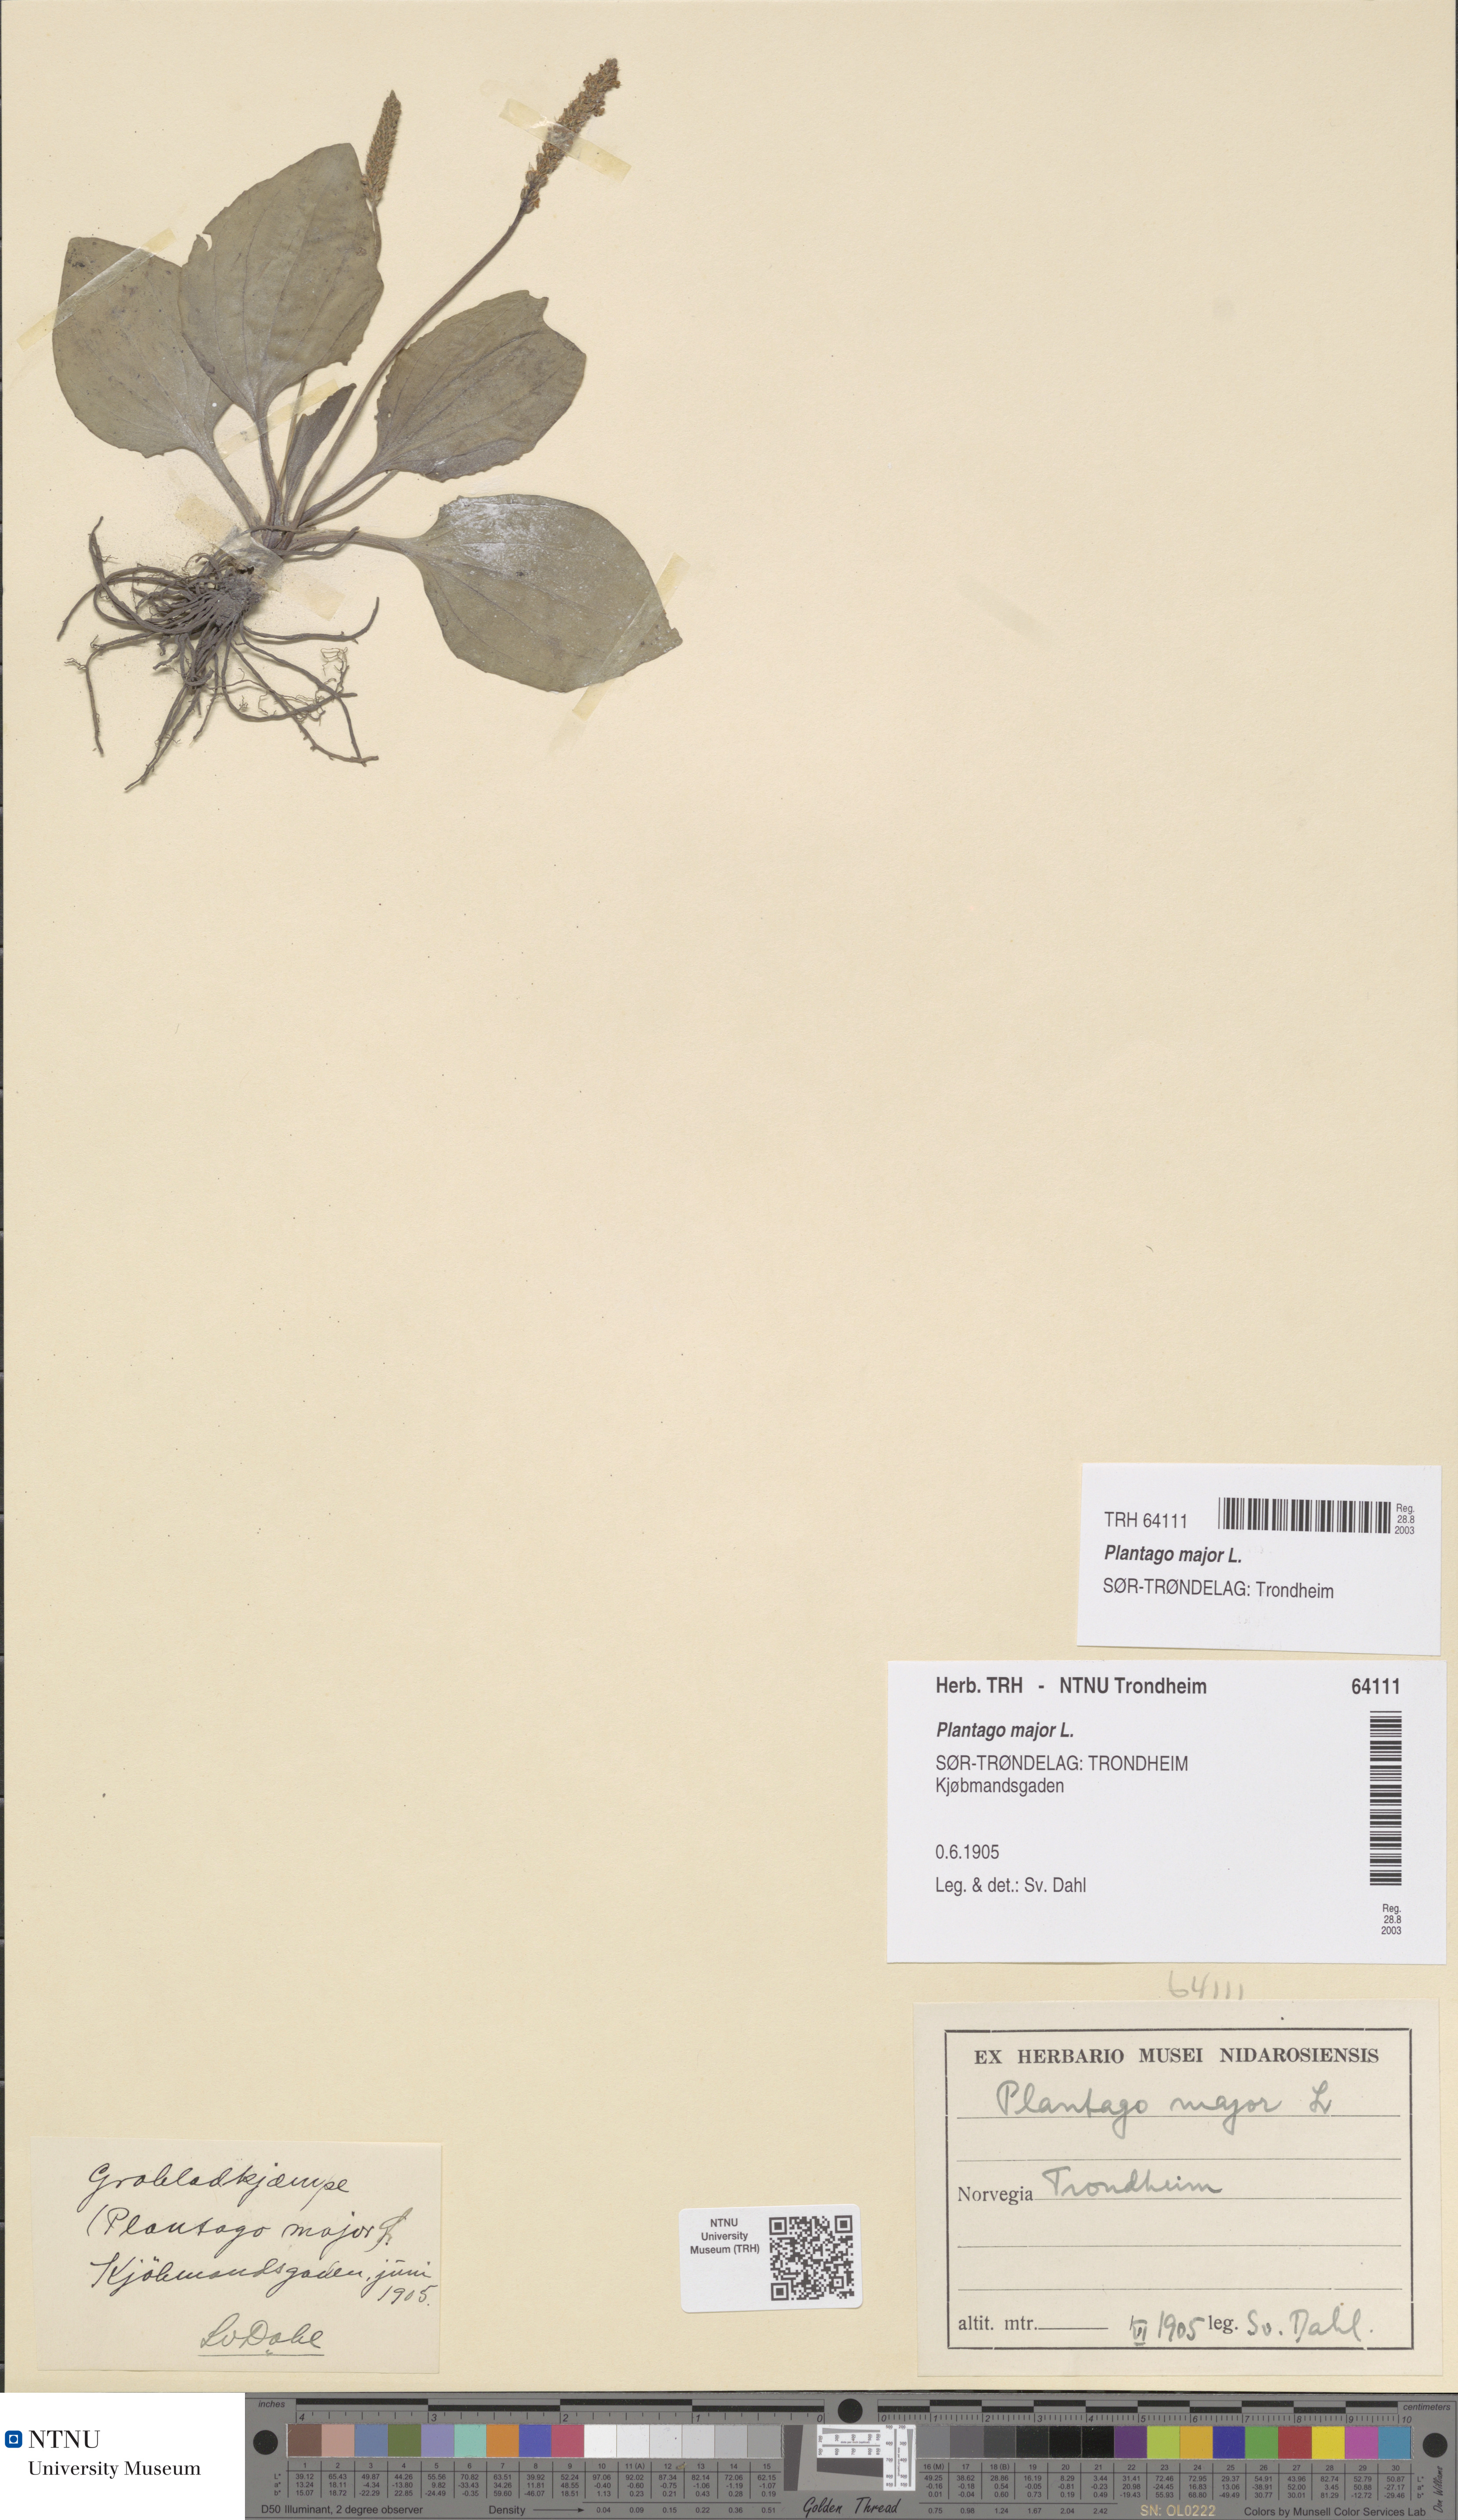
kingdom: Plantae
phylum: Tracheophyta
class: Magnoliopsida
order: Lamiales
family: Plantaginaceae
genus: Plantago
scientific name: Plantago major
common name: Common plantain
